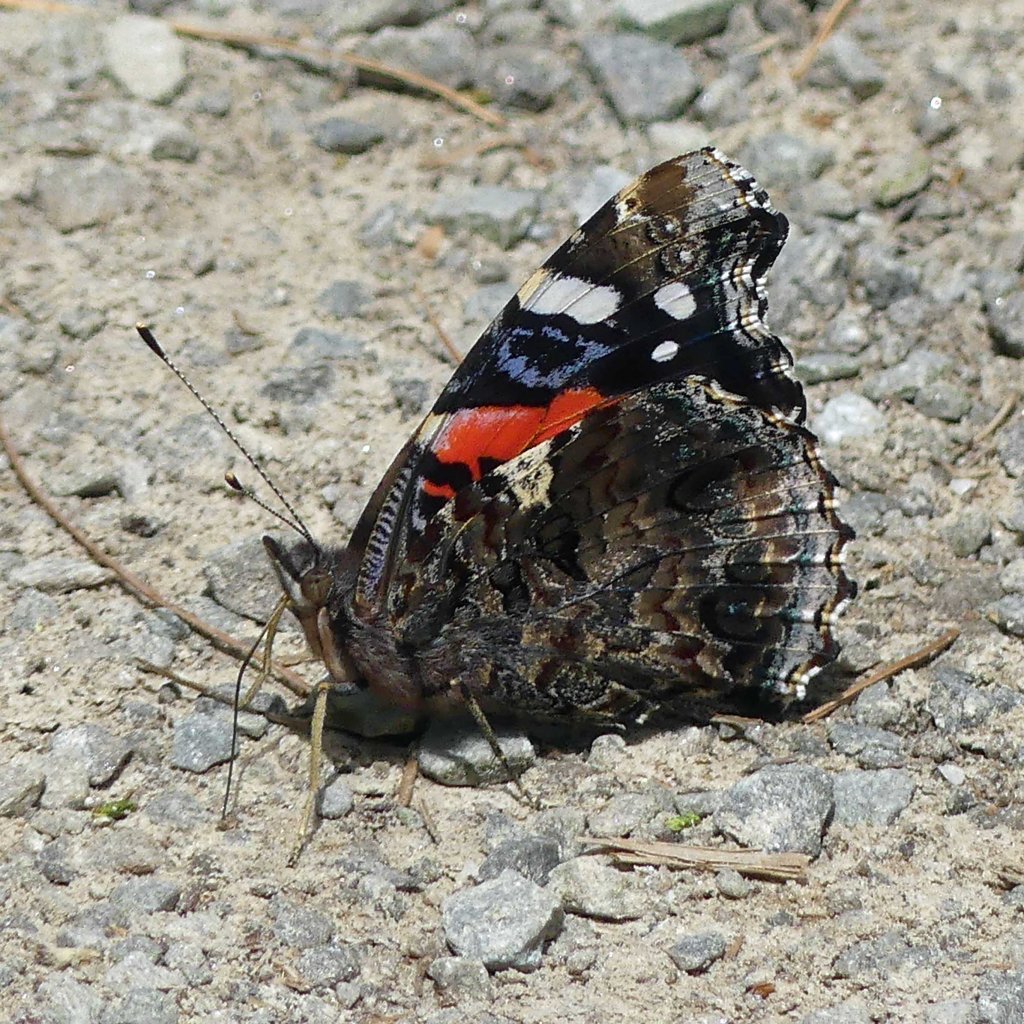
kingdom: Animalia
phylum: Arthropoda
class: Insecta
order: Lepidoptera
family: Nymphalidae
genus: Vanessa
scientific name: Vanessa atalanta
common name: Red Admiral
